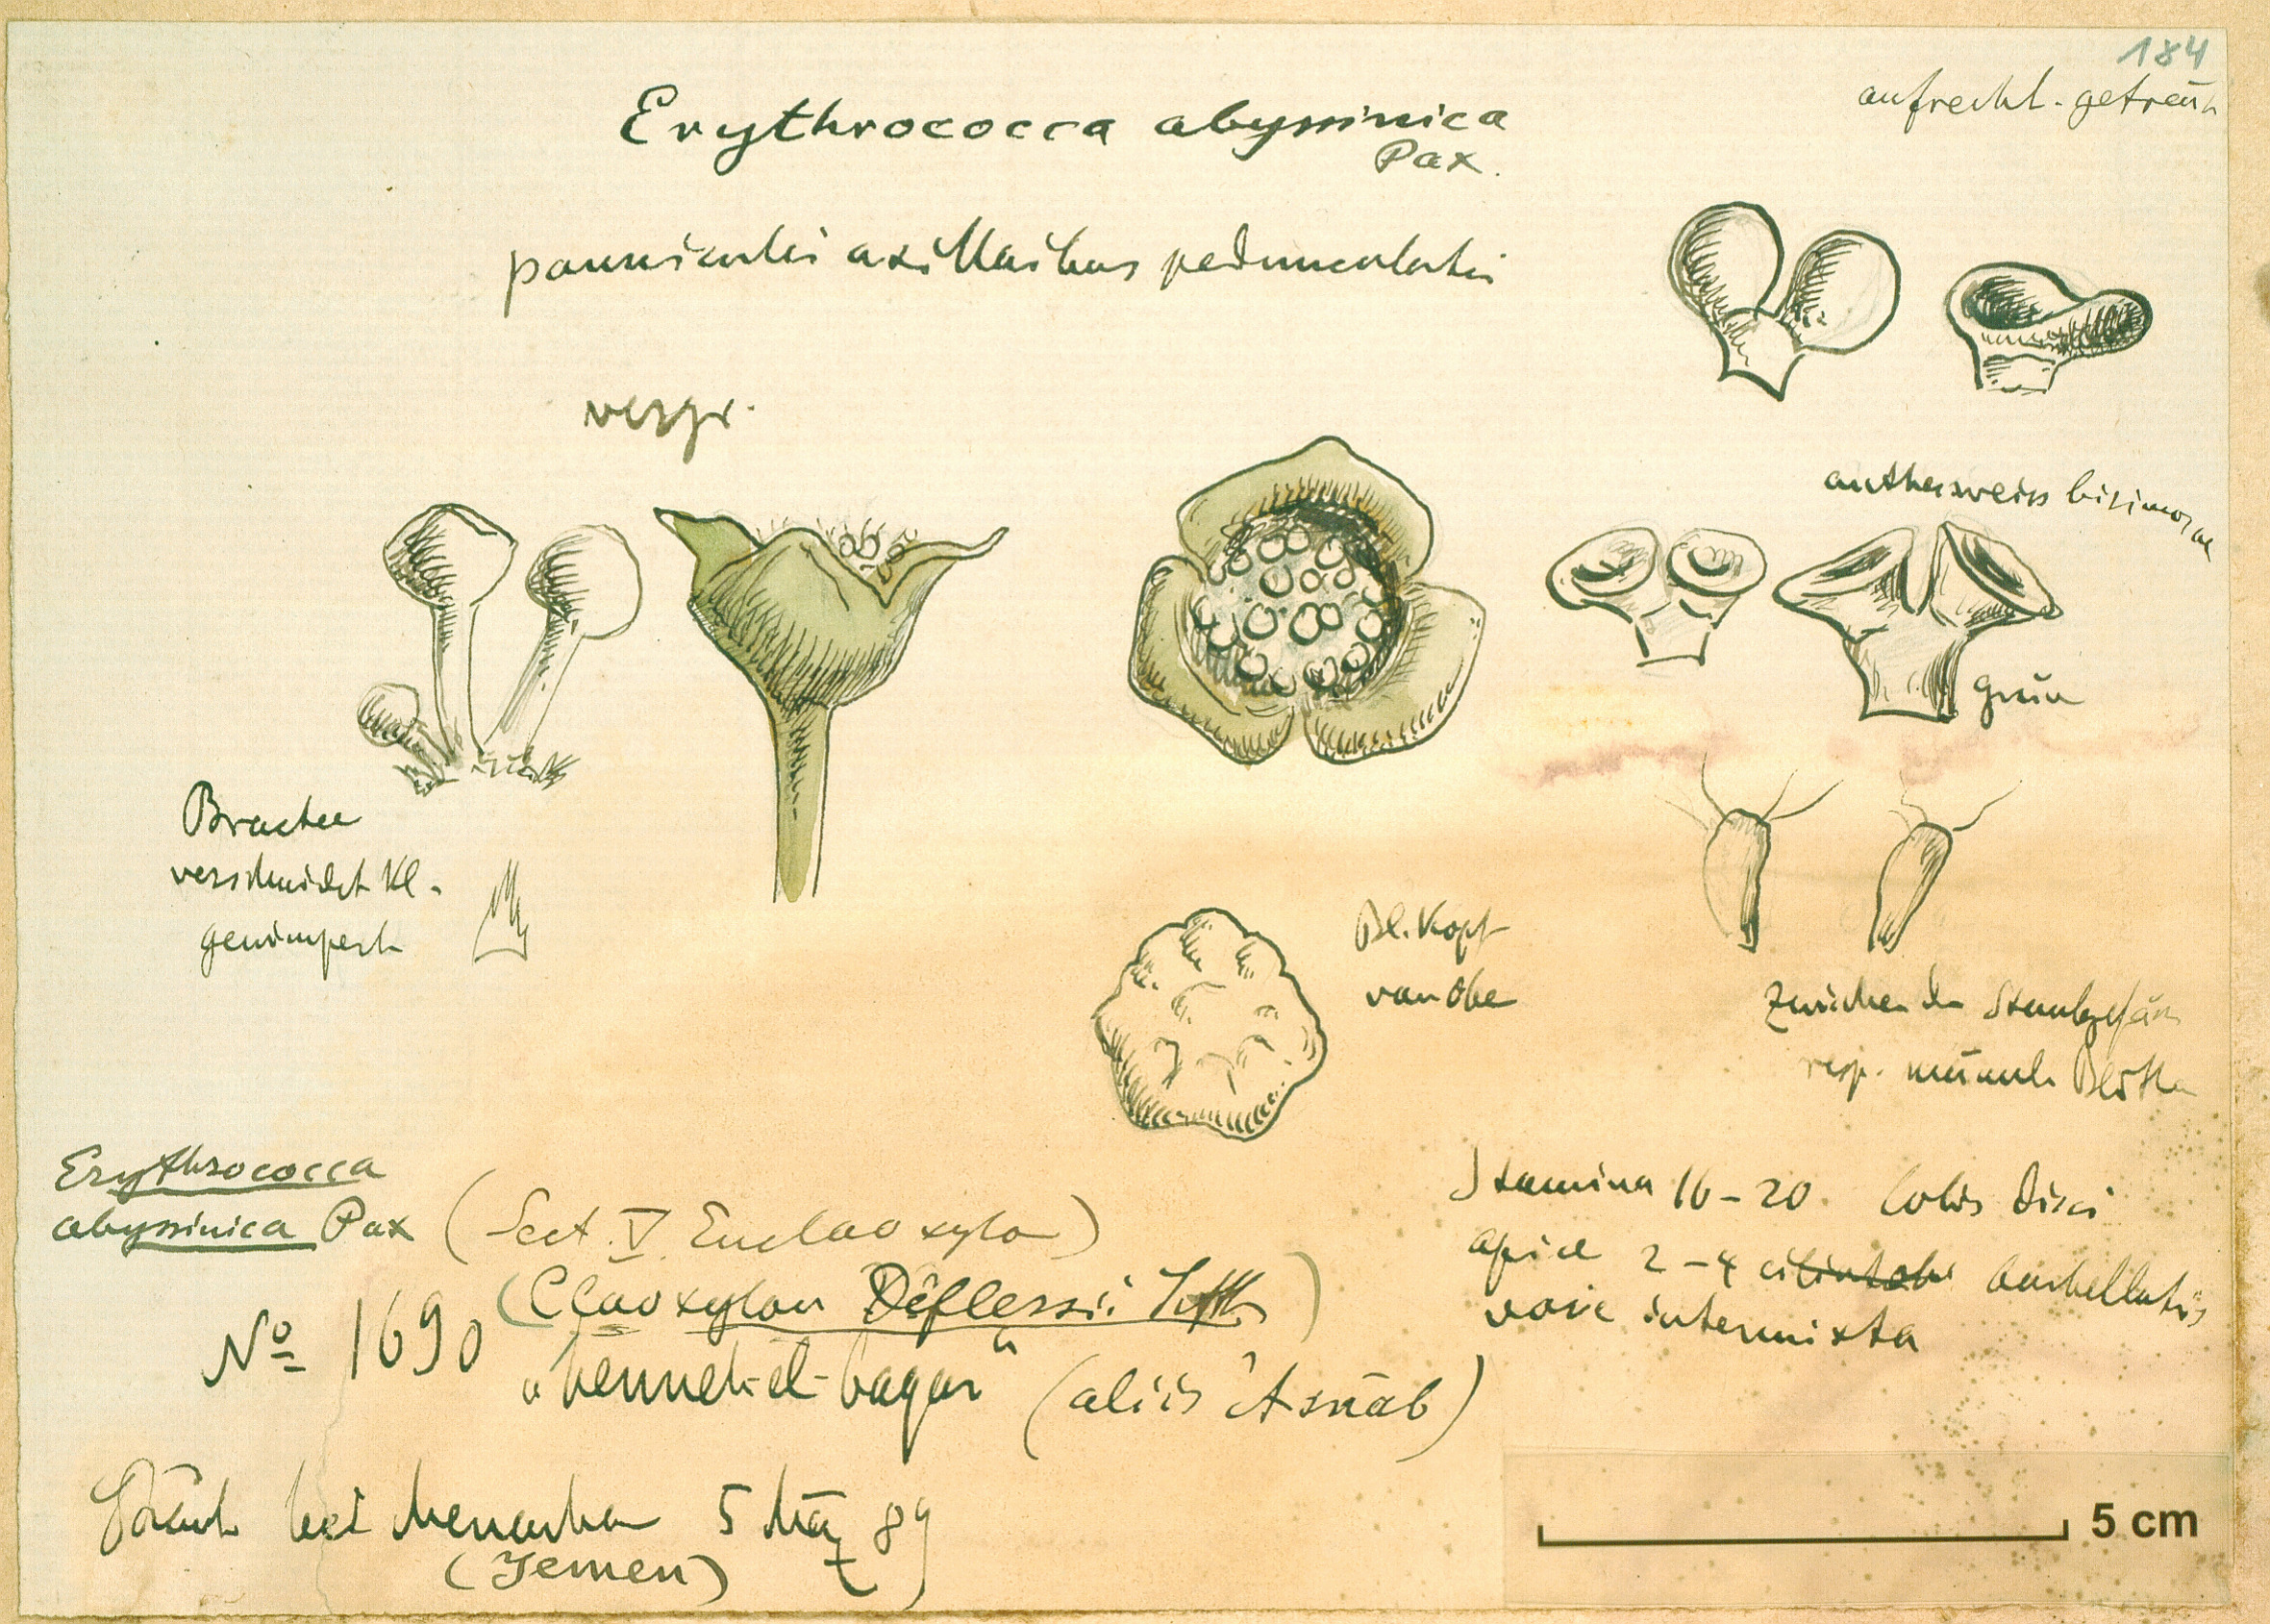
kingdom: Plantae
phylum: Tracheophyta
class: Magnoliopsida
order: Malpighiales
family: Euphorbiaceae
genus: Erythrococca
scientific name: Erythrococca abyssinica
